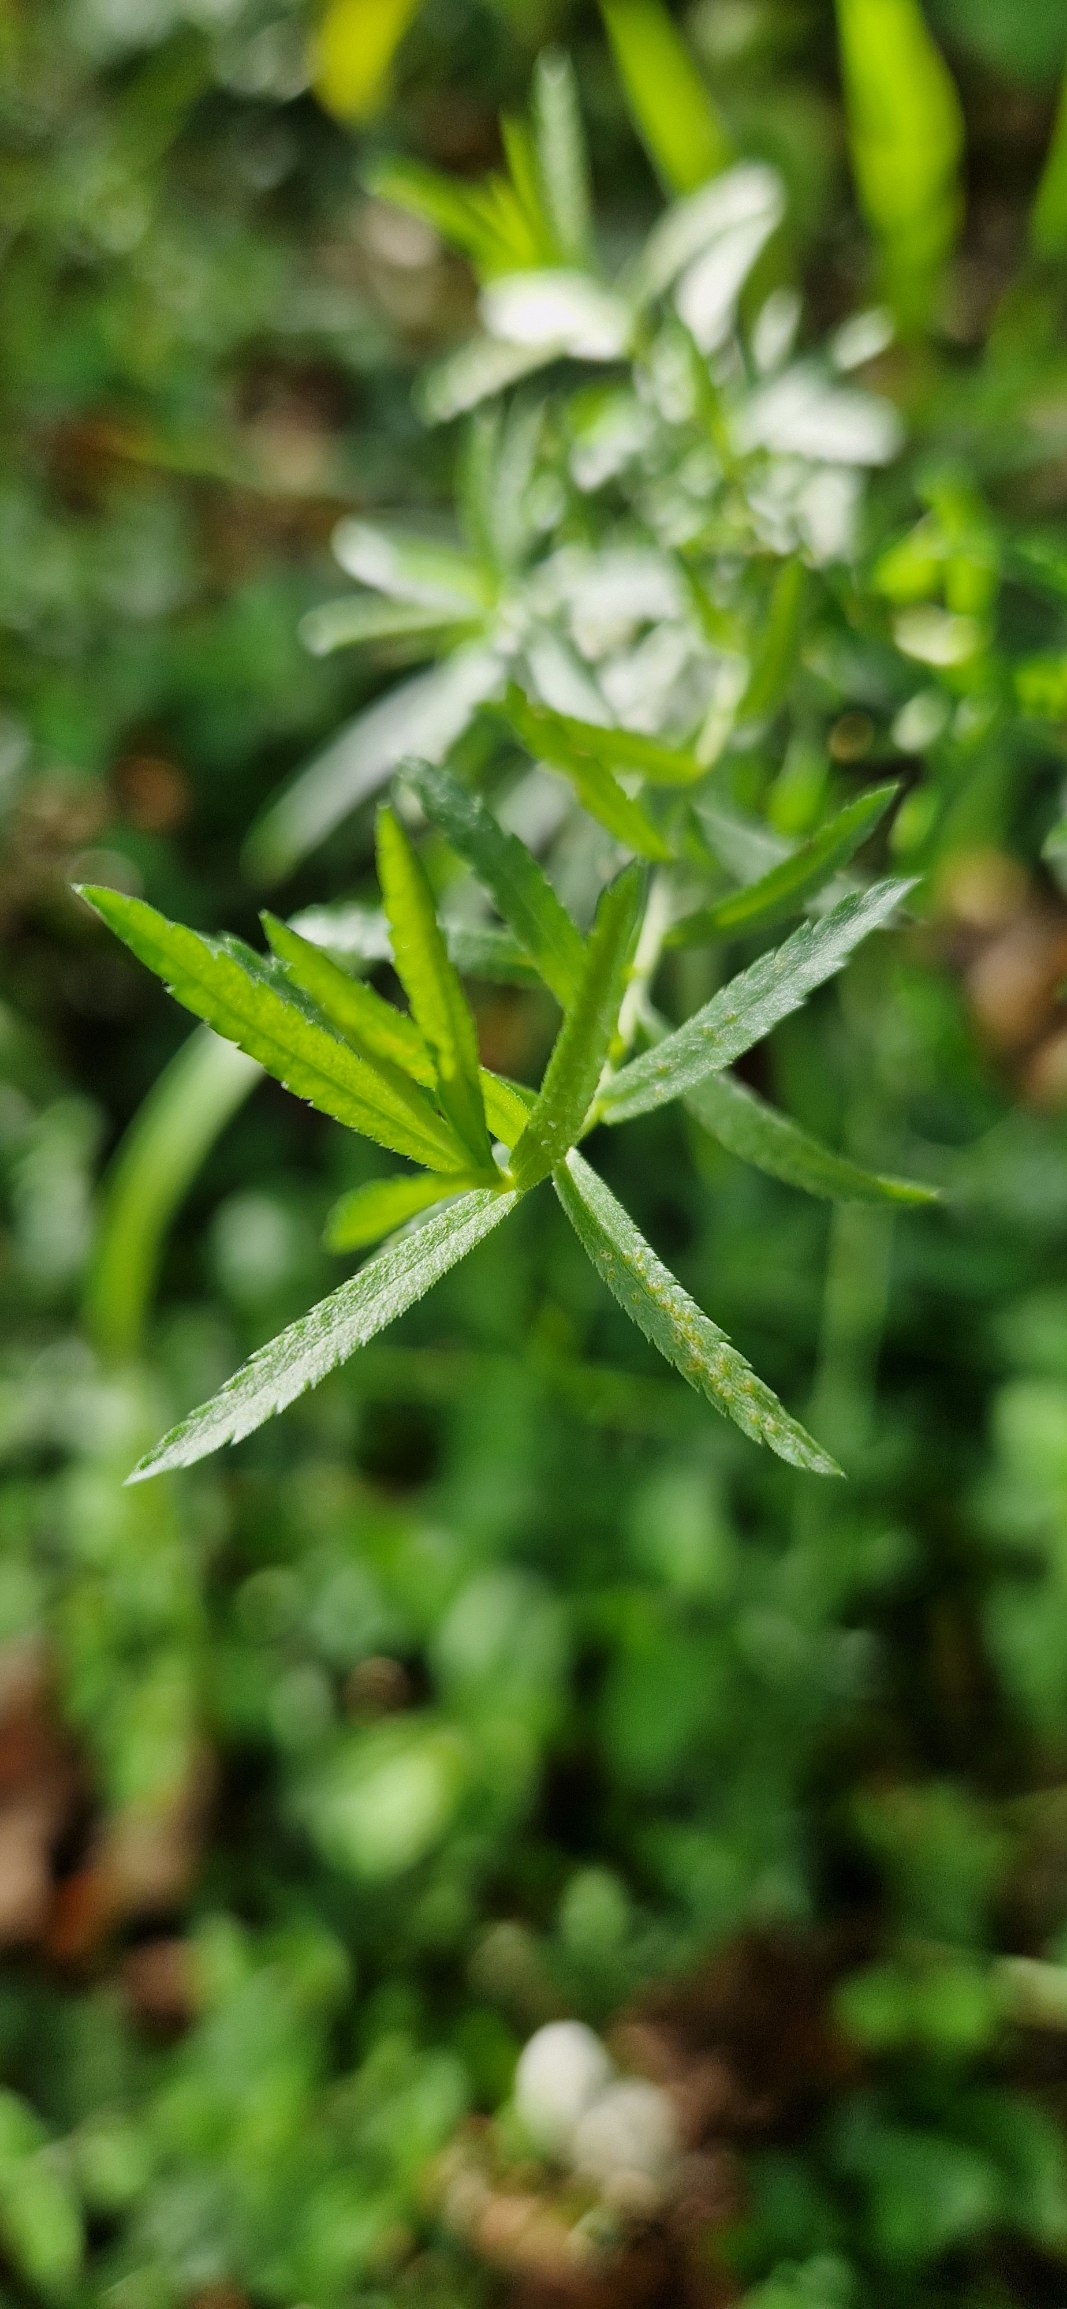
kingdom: Plantae
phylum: Tracheophyta
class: Magnoliopsida
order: Asterales
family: Asteraceae
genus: Achillea
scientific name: Achillea ptarmica
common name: Nyse-røllike
